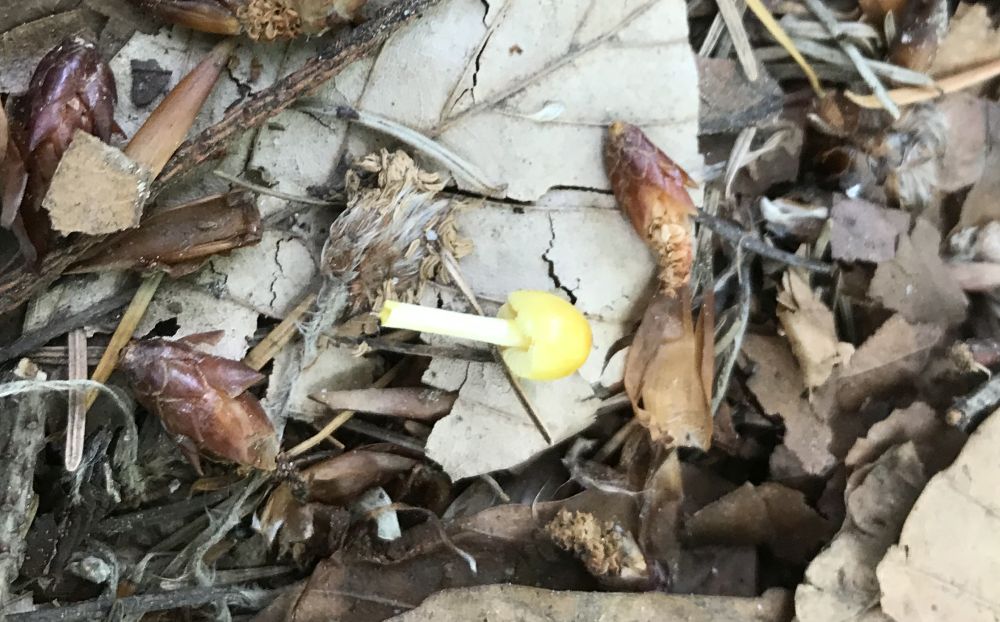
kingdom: Fungi
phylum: Basidiomycota
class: Agaricomycetes
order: Agaricales
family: Bolbitiaceae
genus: Bolbitius
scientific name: Bolbitius titubans
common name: almindelig gulhat
